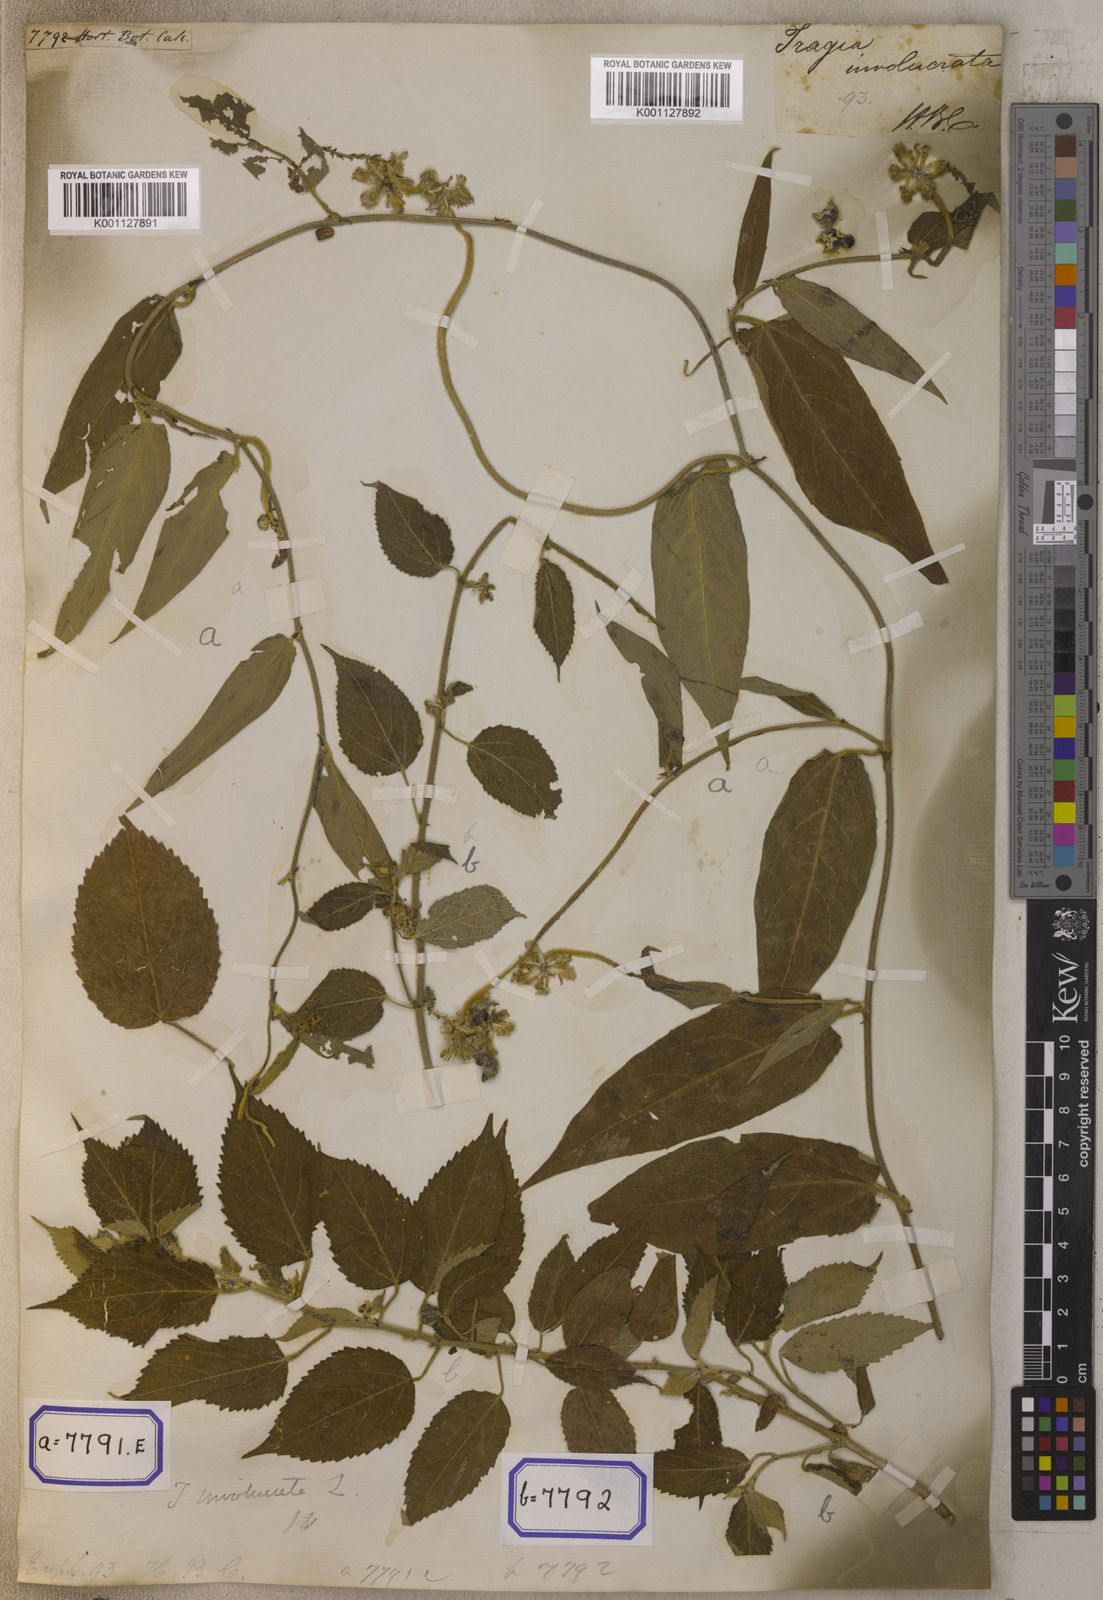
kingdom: Plantae
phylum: Tracheophyta
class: Magnoliopsida
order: Malpighiales
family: Euphorbiaceae
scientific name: Euphorbiaceae
